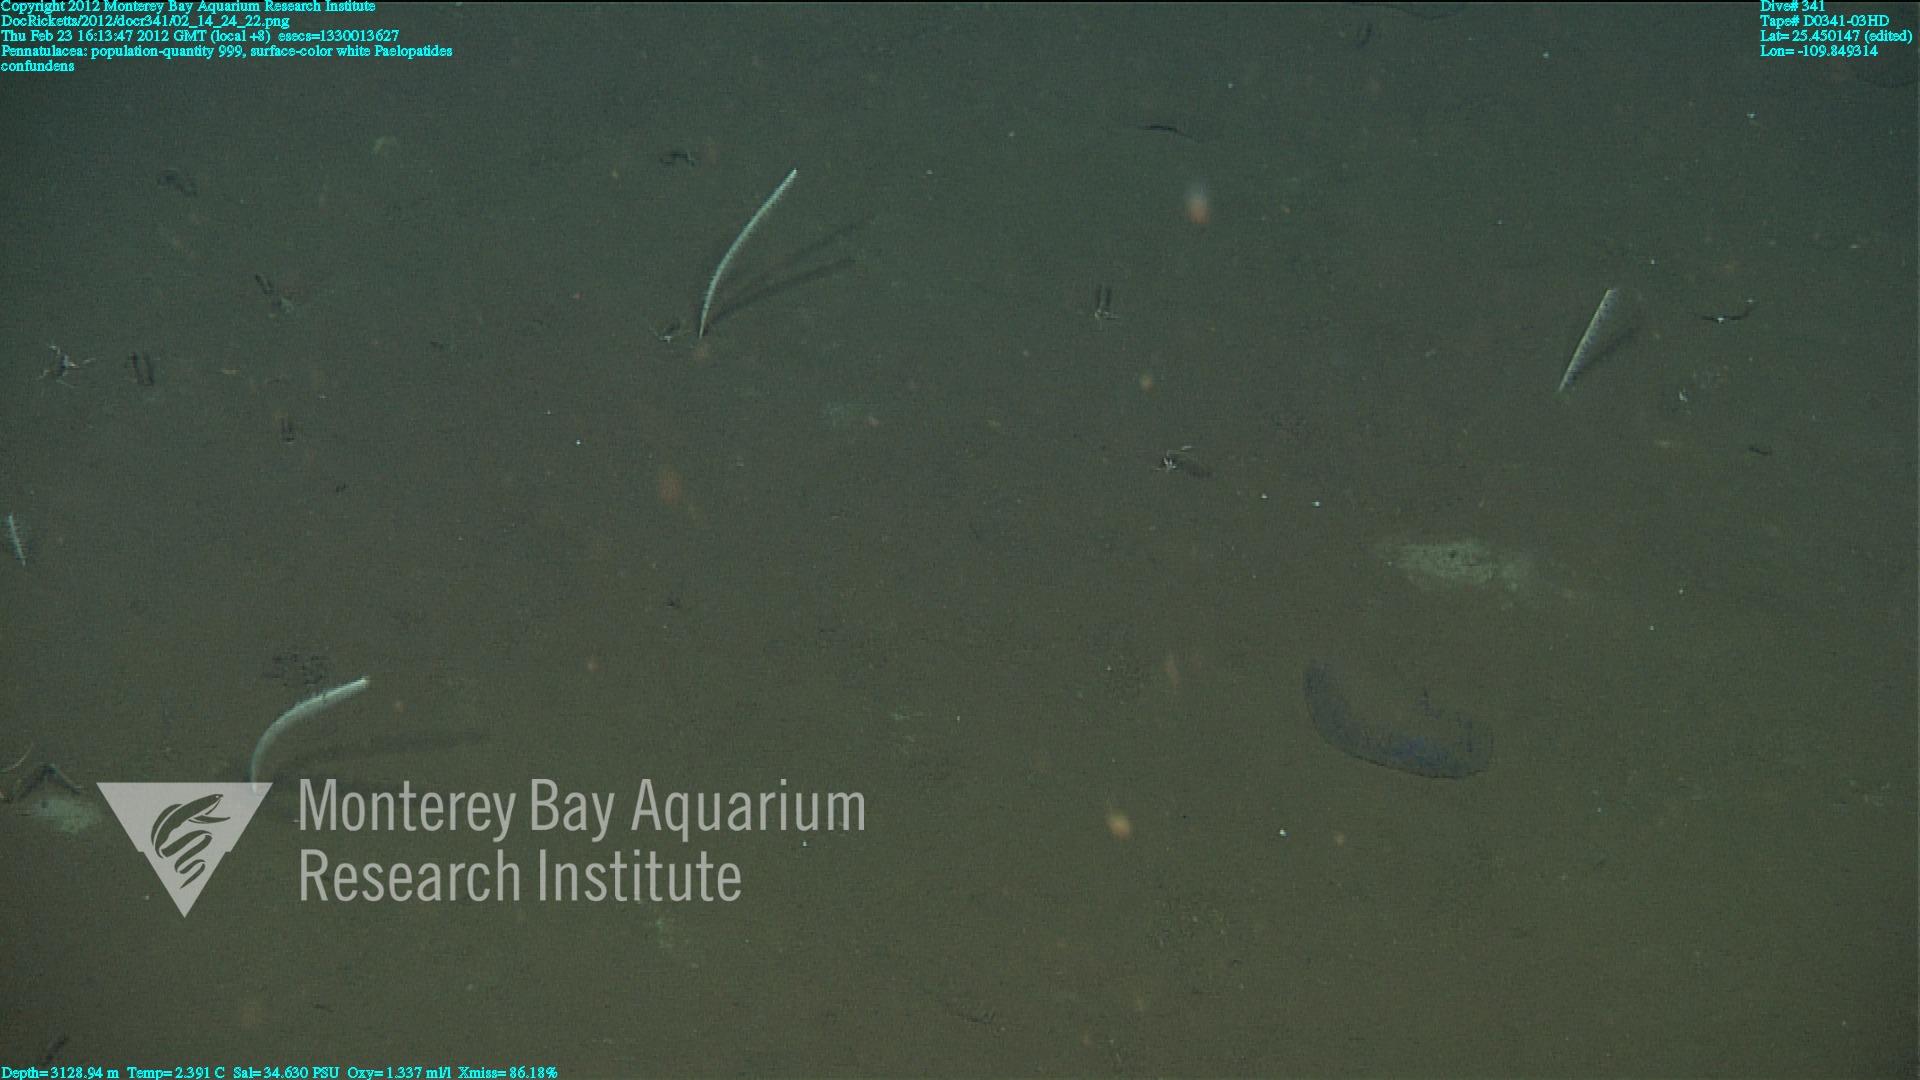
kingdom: Animalia
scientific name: Animalia
